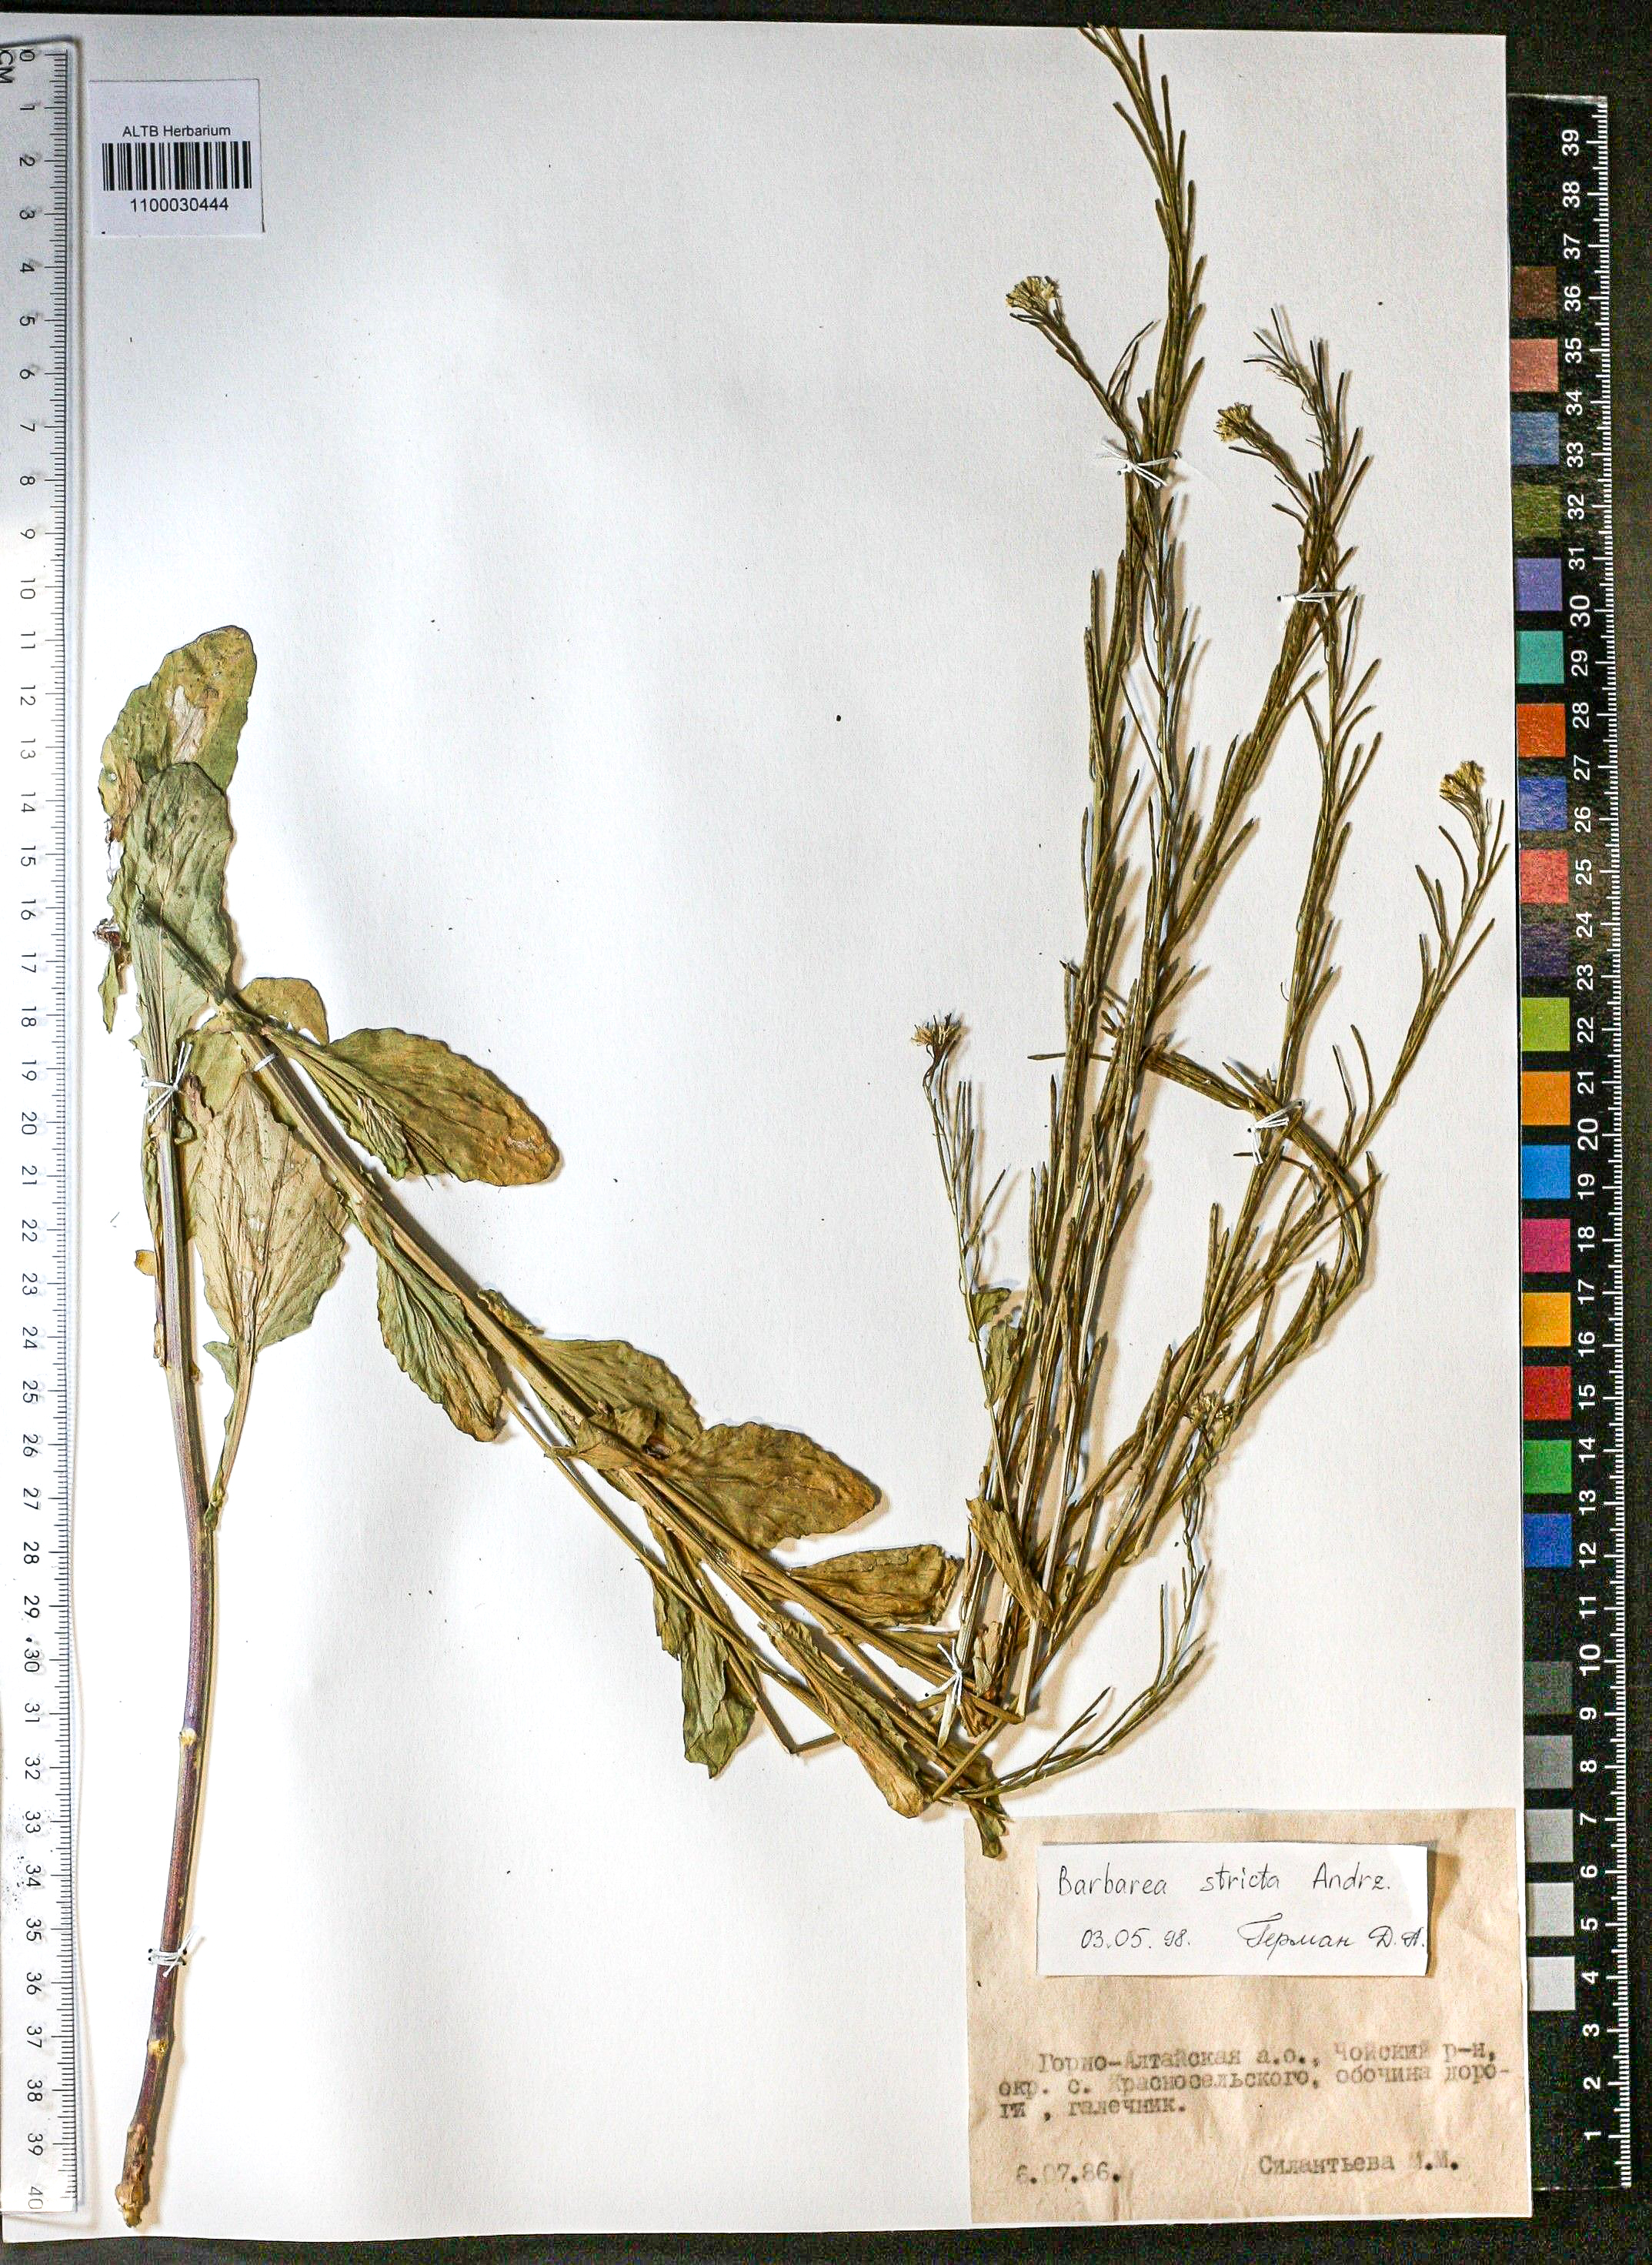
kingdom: Plantae
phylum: Tracheophyta
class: Magnoliopsida
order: Brassicales
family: Brassicaceae
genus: Barbarea
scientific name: Barbarea vulgaris
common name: Cressy-greens
